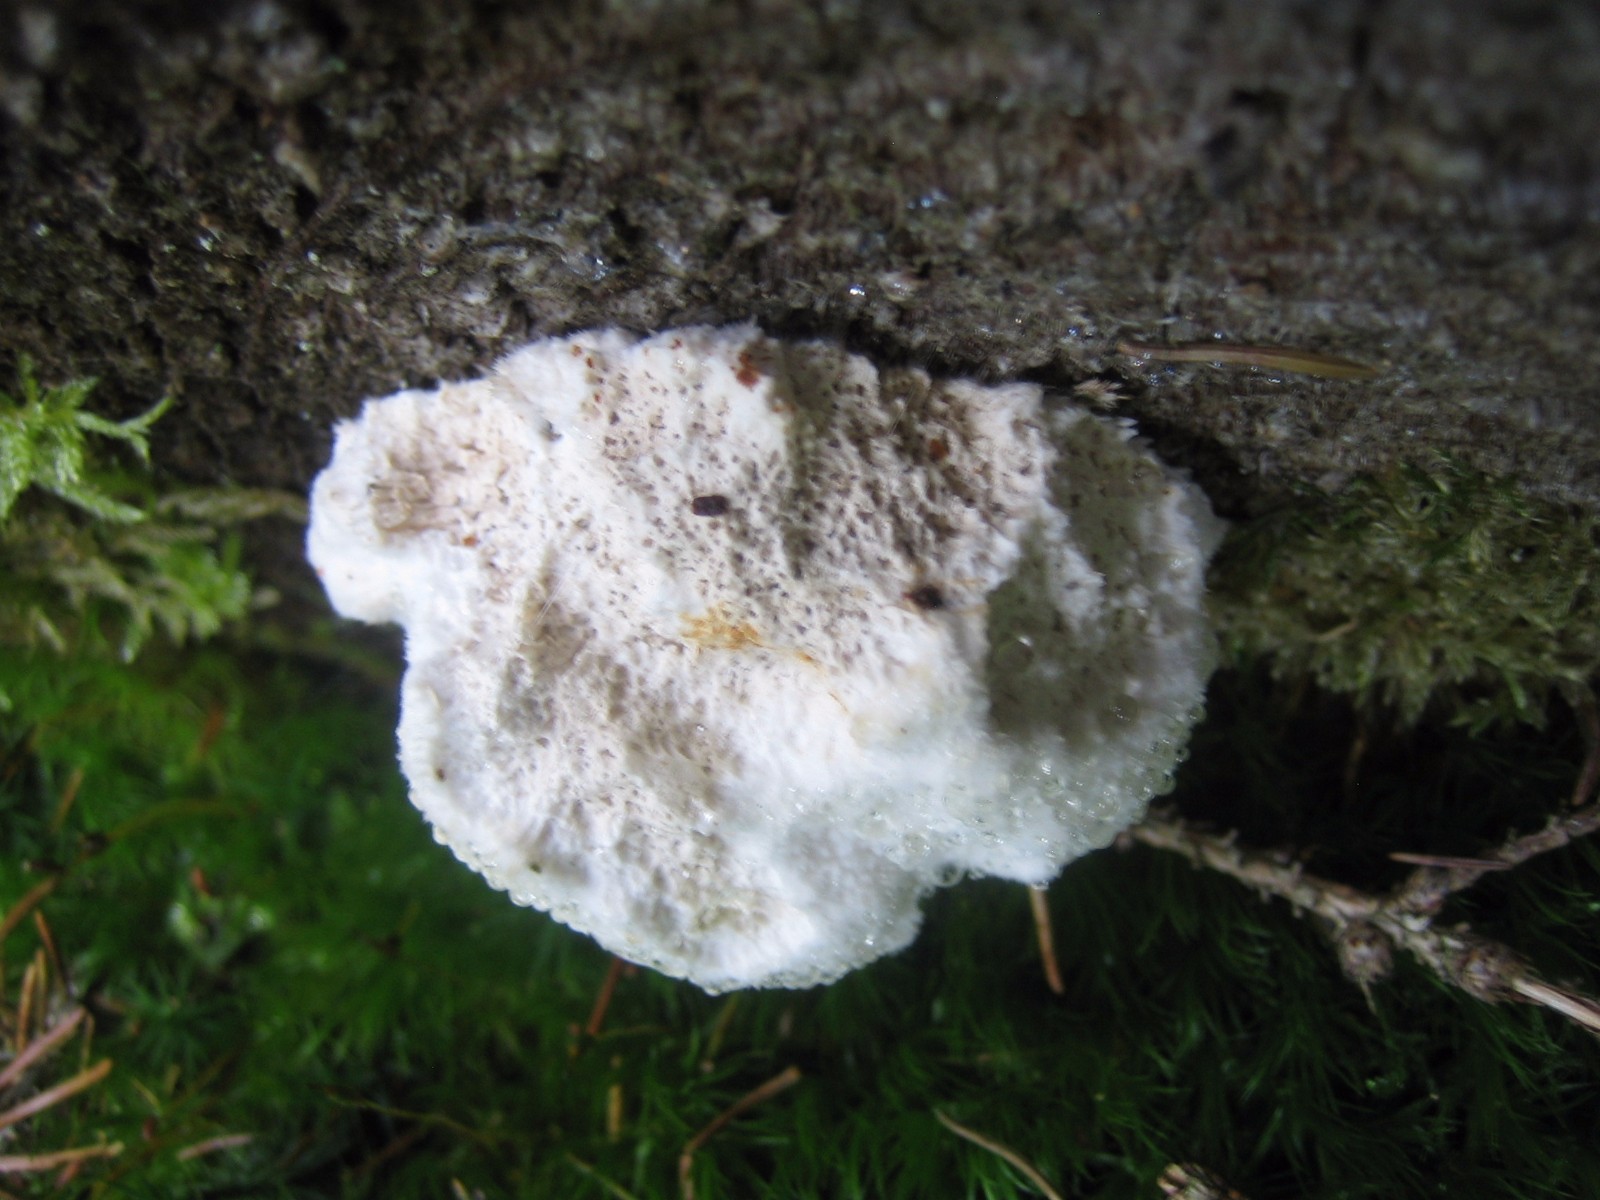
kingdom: Fungi
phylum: Basidiomycota
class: Agaricomycetes
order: Polyporales
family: Dacryobolaceae
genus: Postia
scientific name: Postia ptychogaster
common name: støvende kødporesvamp
